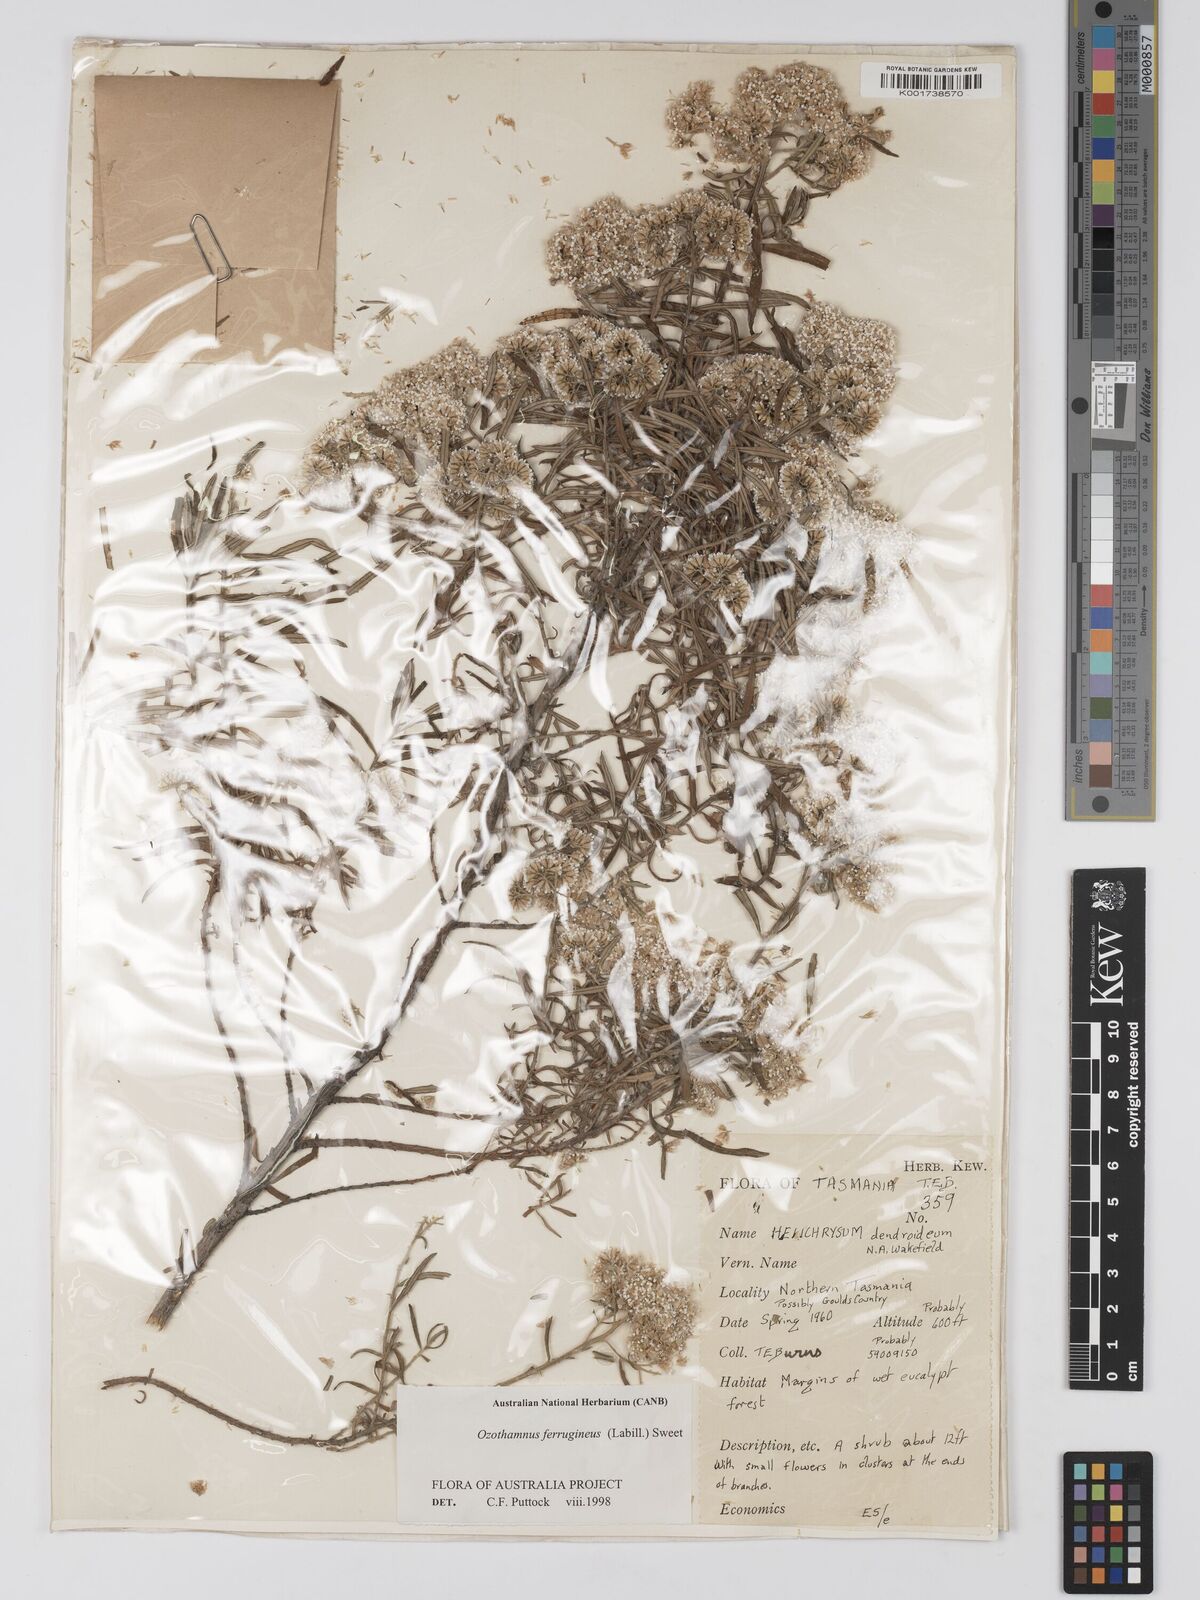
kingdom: Plantae
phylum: Tracheophyta
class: Magnoliopsida
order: Asterales
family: Asteraceae
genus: Ozothamnus
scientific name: Ozothamnus ferrugineus
